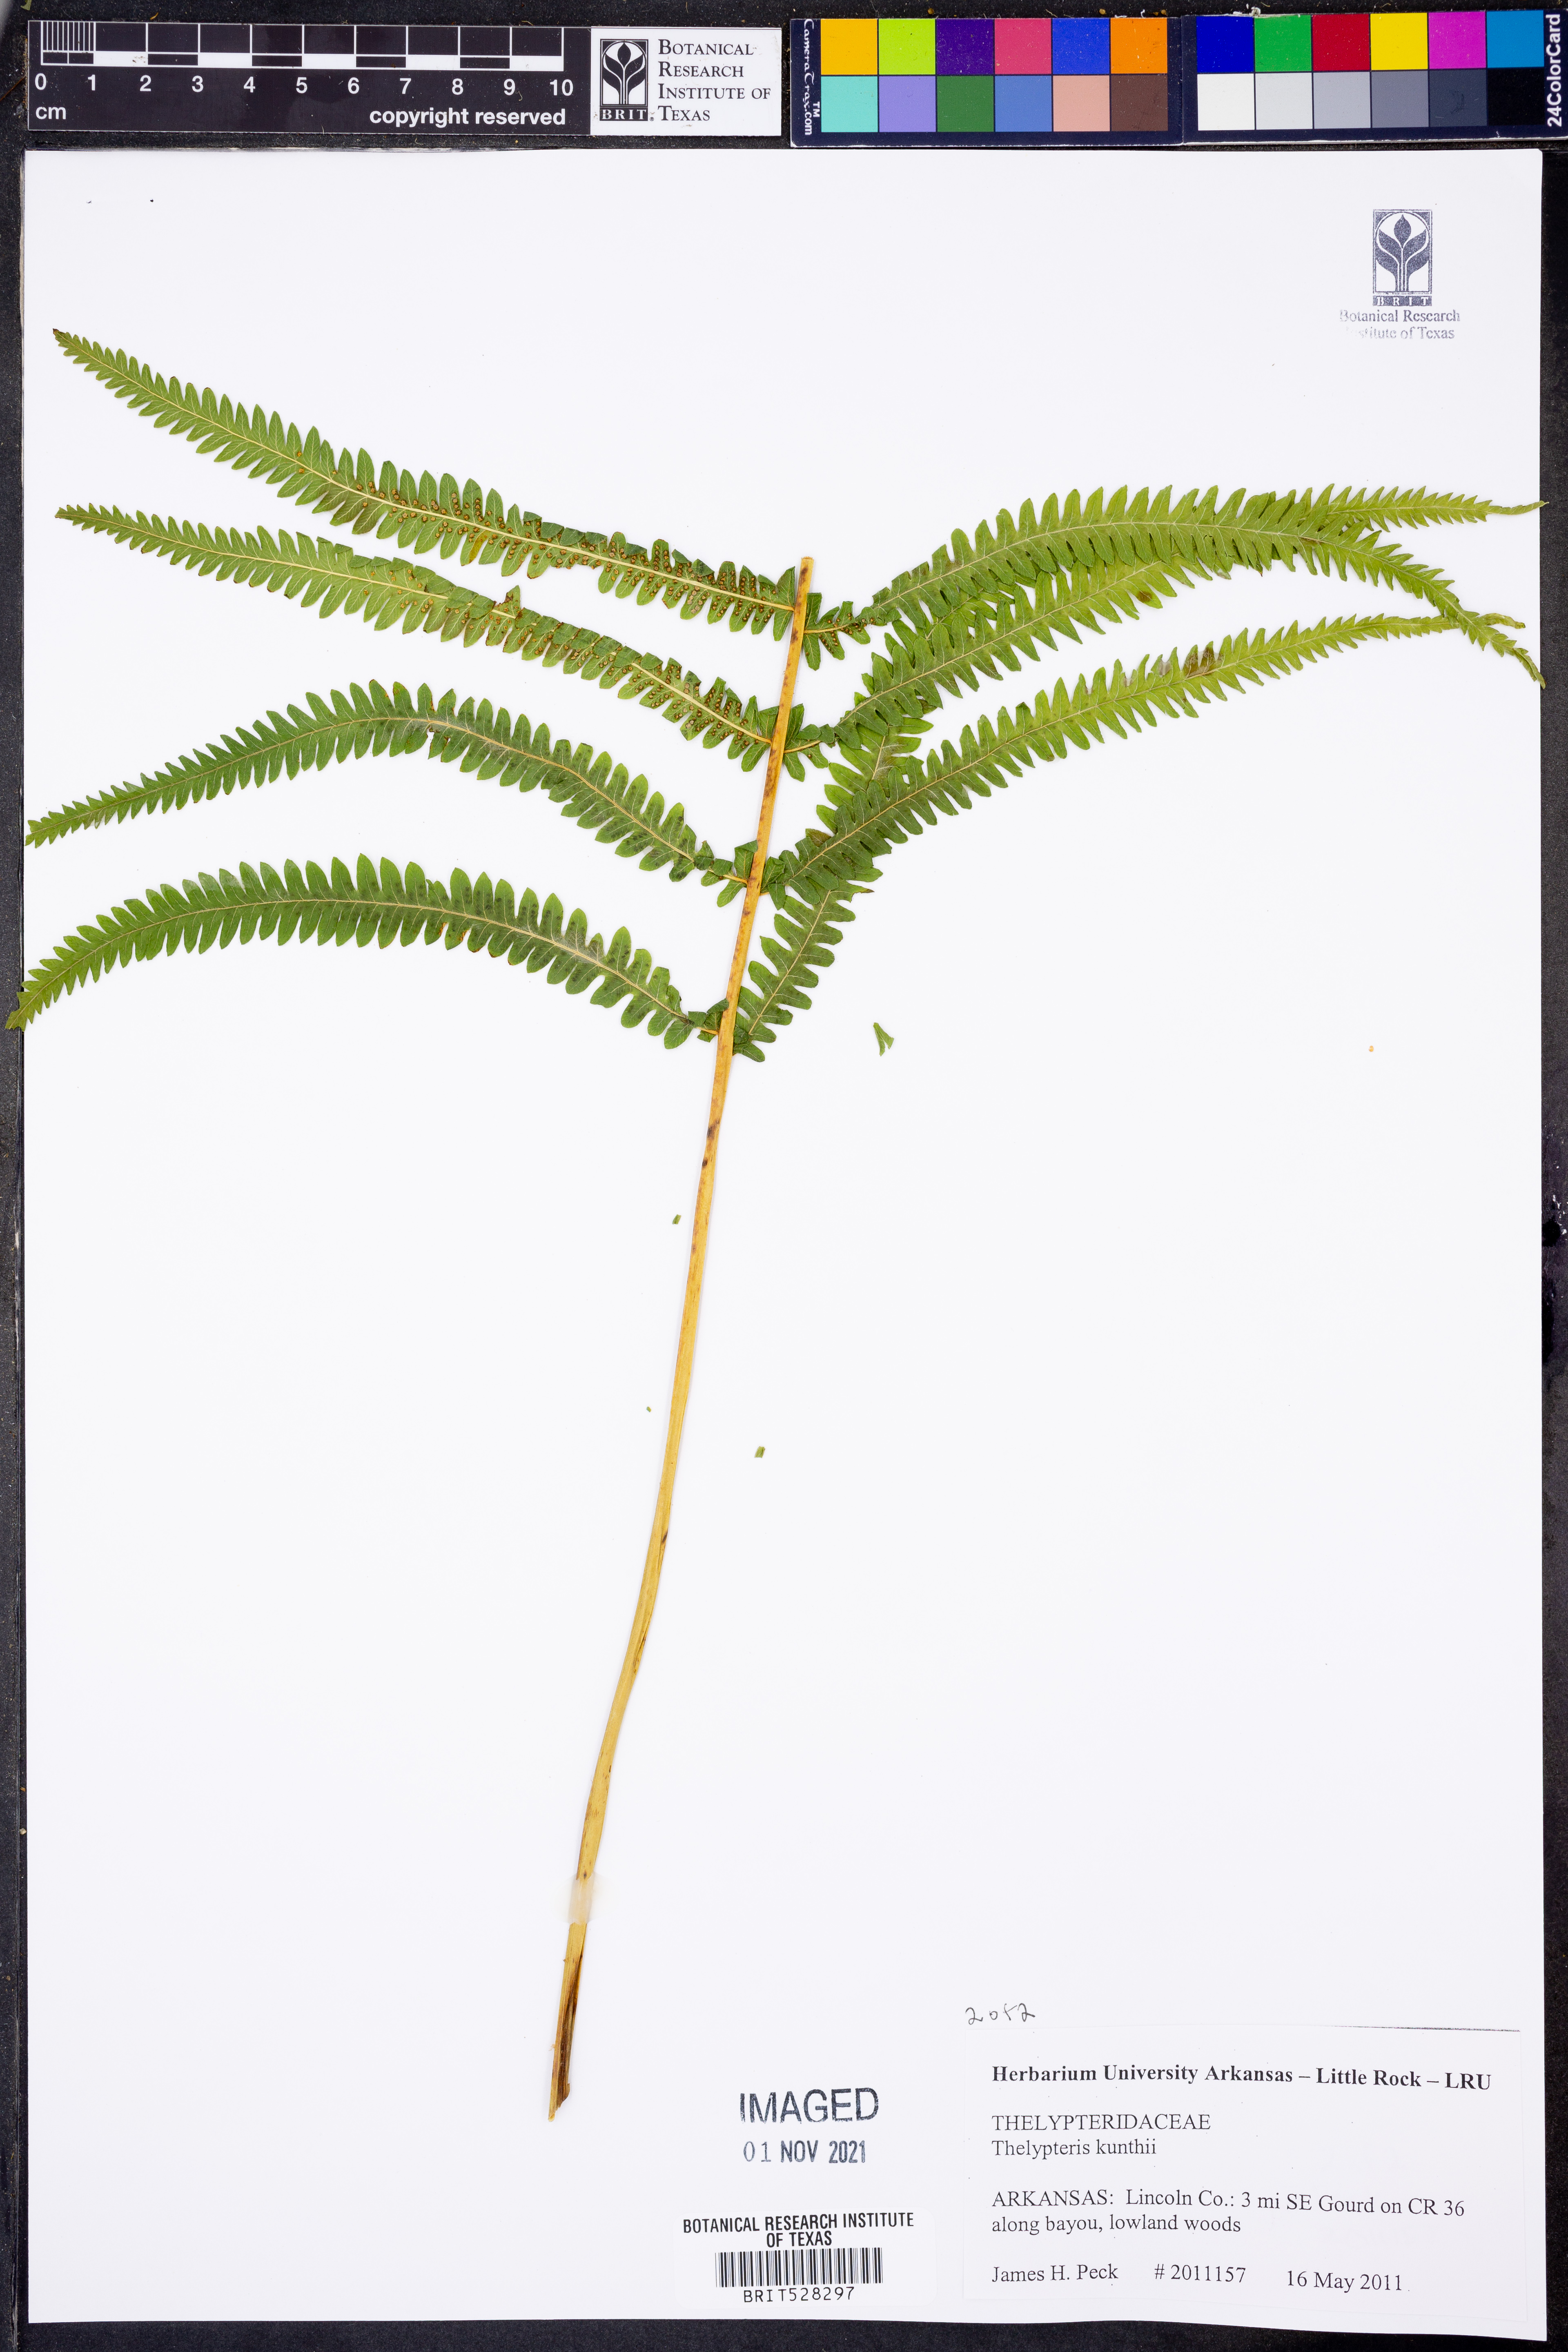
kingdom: Plantae
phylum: Tracheophyta
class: Polypodiopsida
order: Polypodiales
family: Thelypteridaceae
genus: Pelazoneuron
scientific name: Pelazoneuron kunthii
